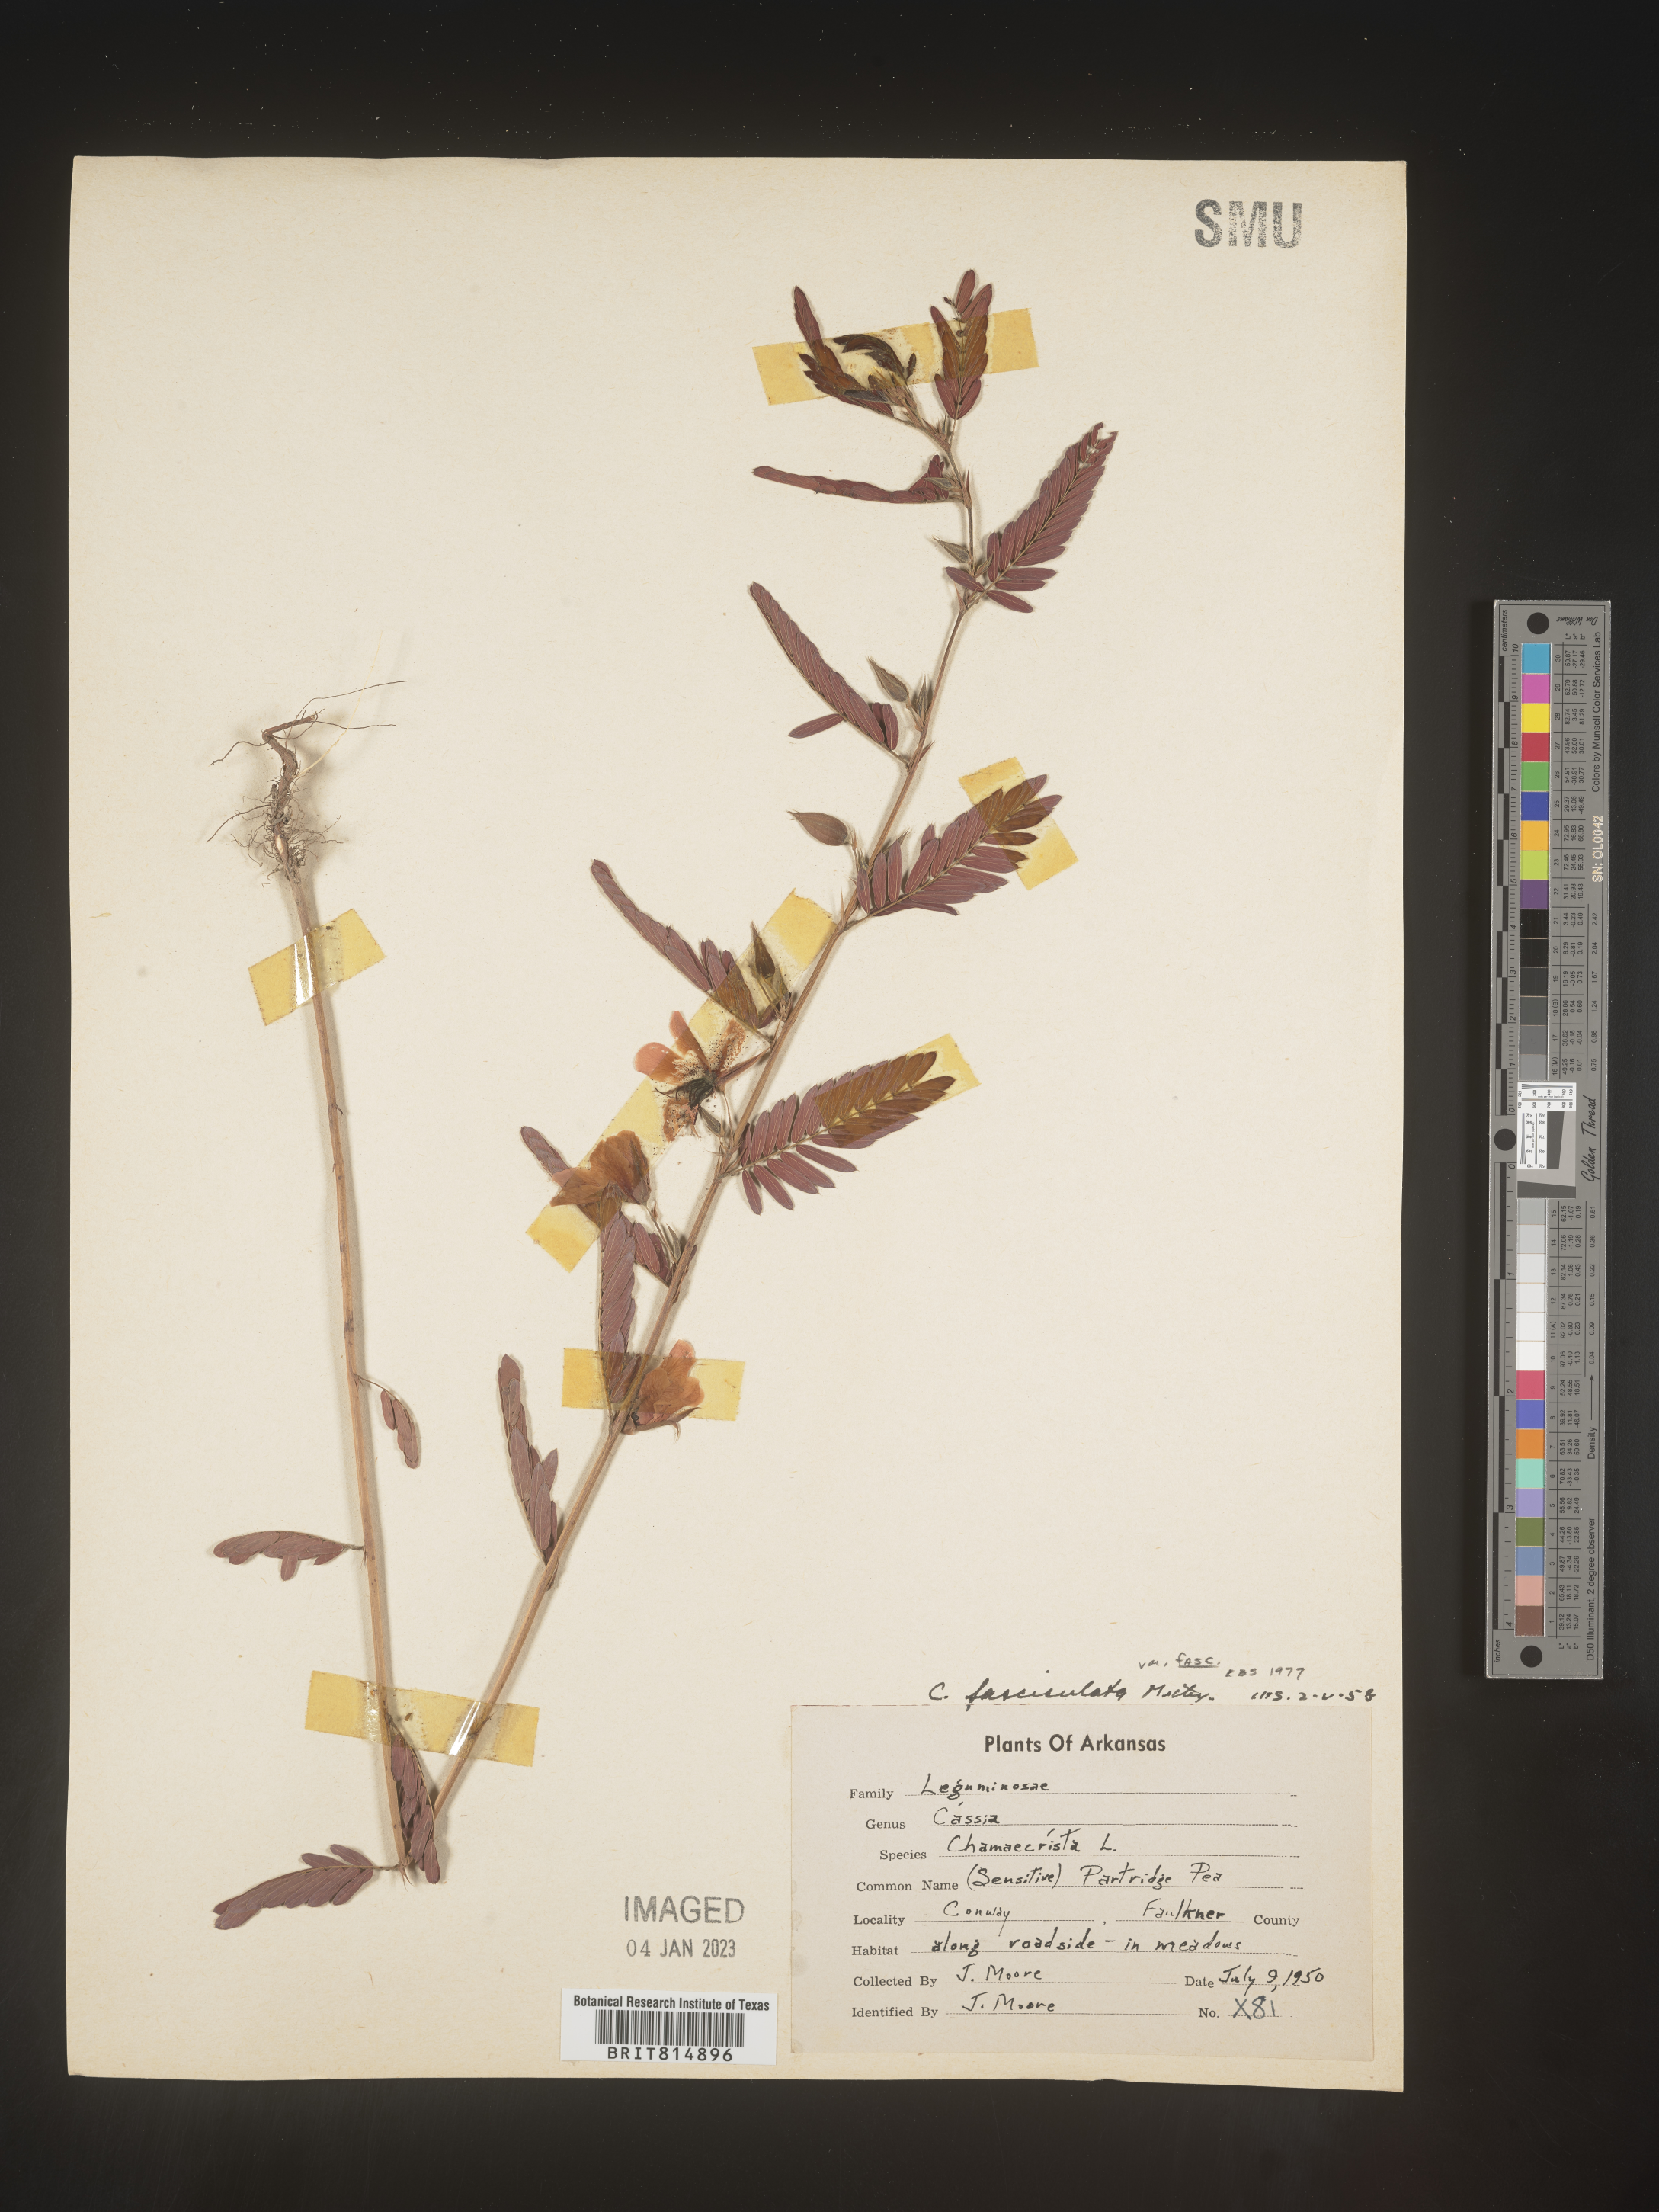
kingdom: Plantae
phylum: Tracheophyta
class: Magnoliopsida
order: Fabales
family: Fabaceae
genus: Chamaecrista
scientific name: Chamaecrista fasciculata
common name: Golden cassia
